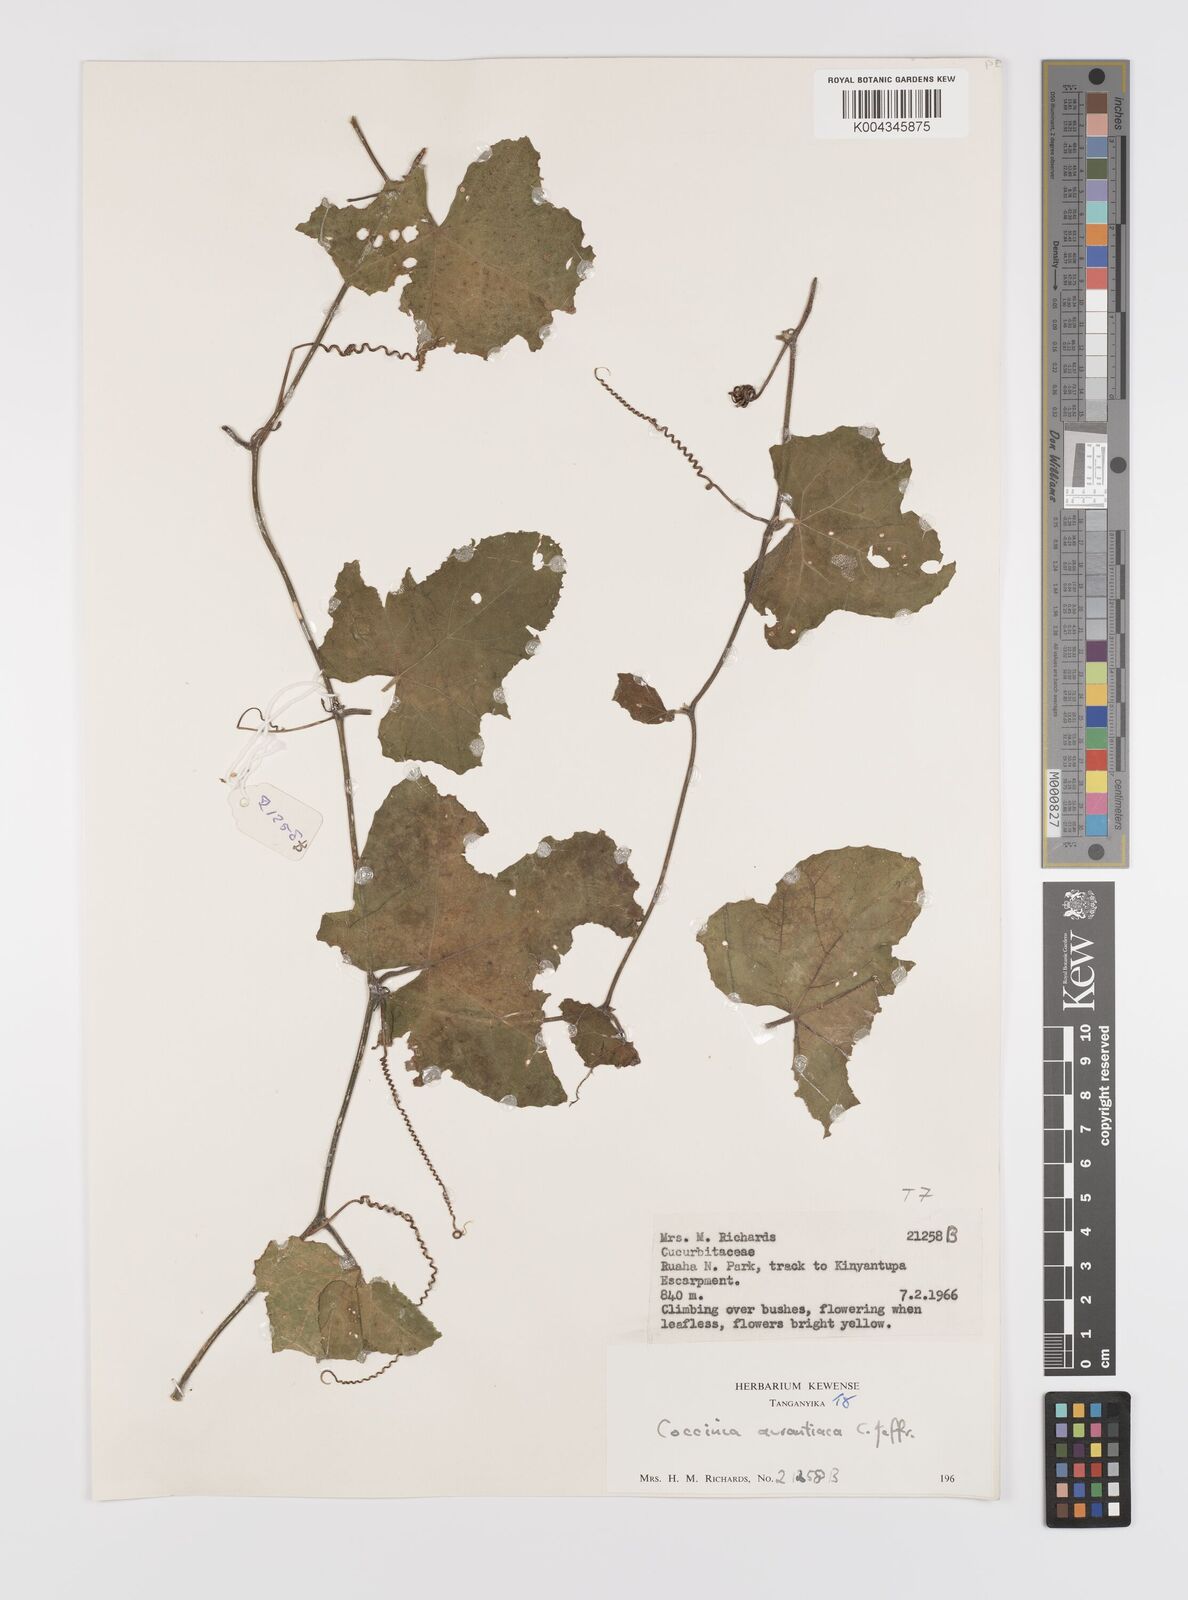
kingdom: Plantae
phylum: Tracheophyta
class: Magnoliopsida
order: Cucurbitales
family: Cucurbitaceae
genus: Coccinia
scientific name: Coccinia adoensis
